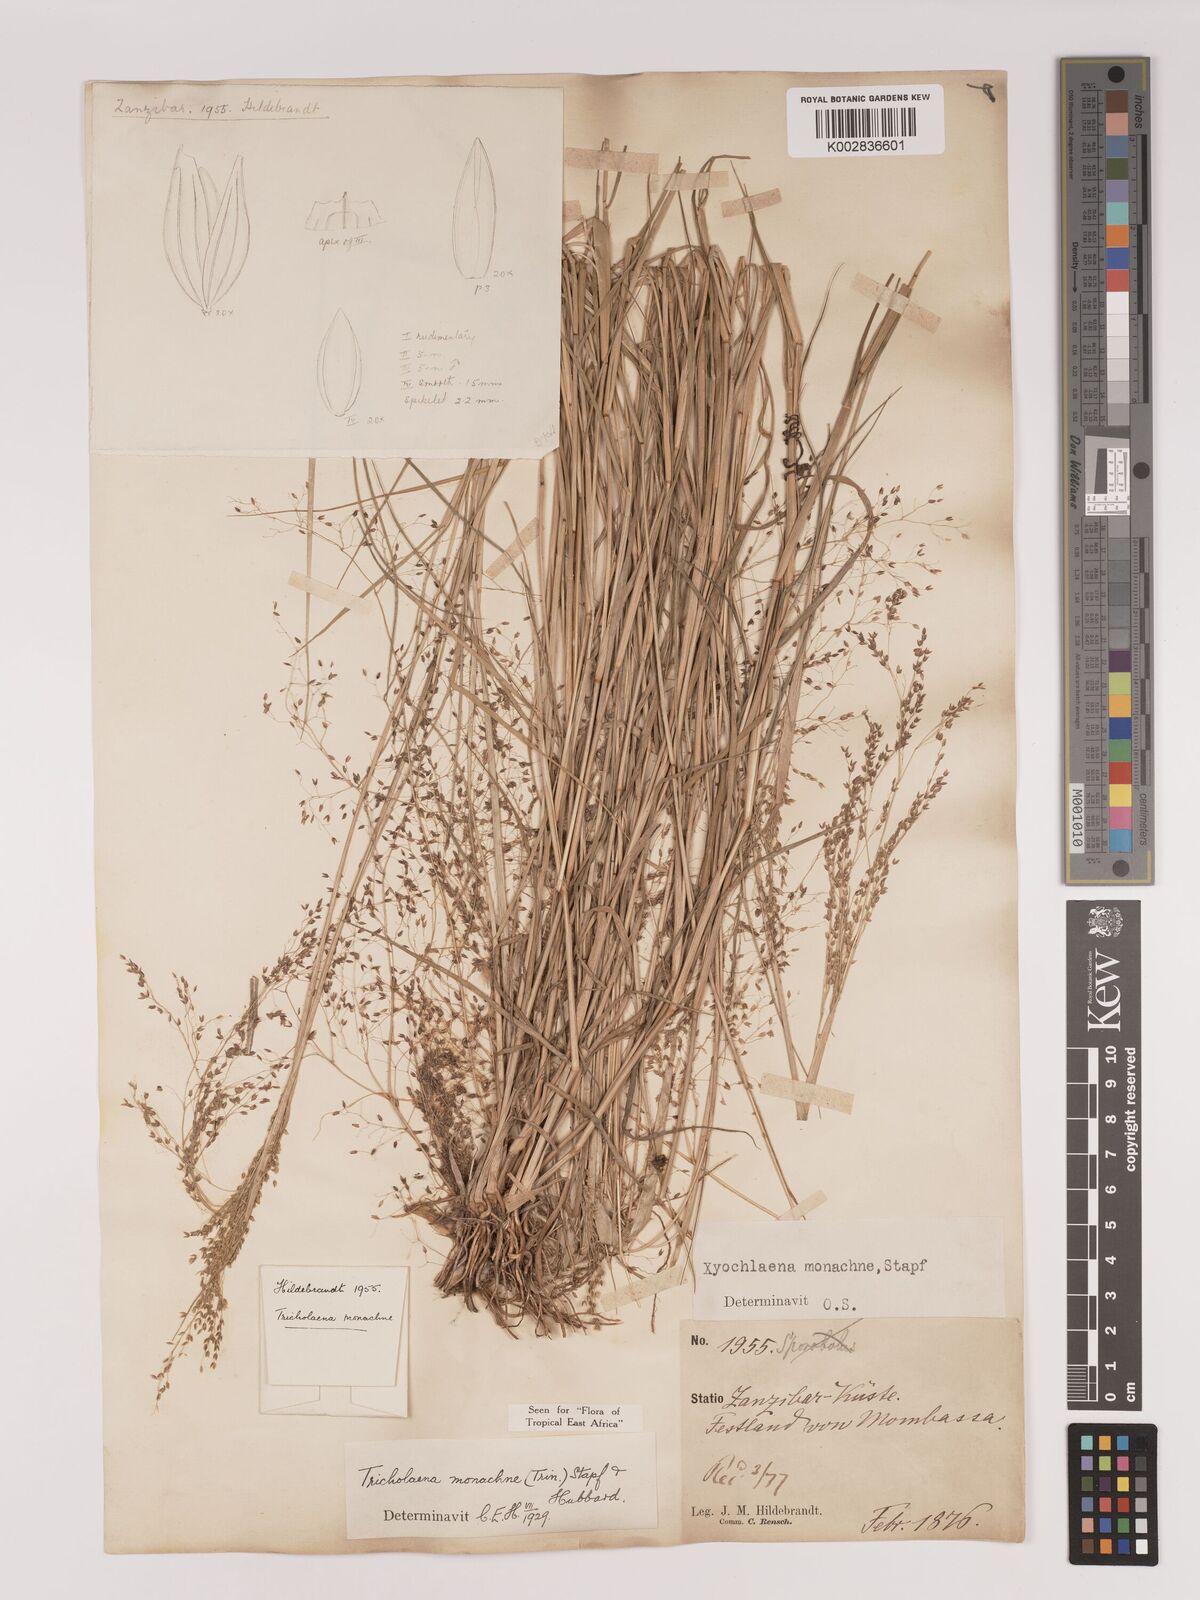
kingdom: Plantae
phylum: Tracheophyta
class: Liliopsida
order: Poales
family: Poaceae
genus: Tricholaena
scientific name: Tricholaena monachne
